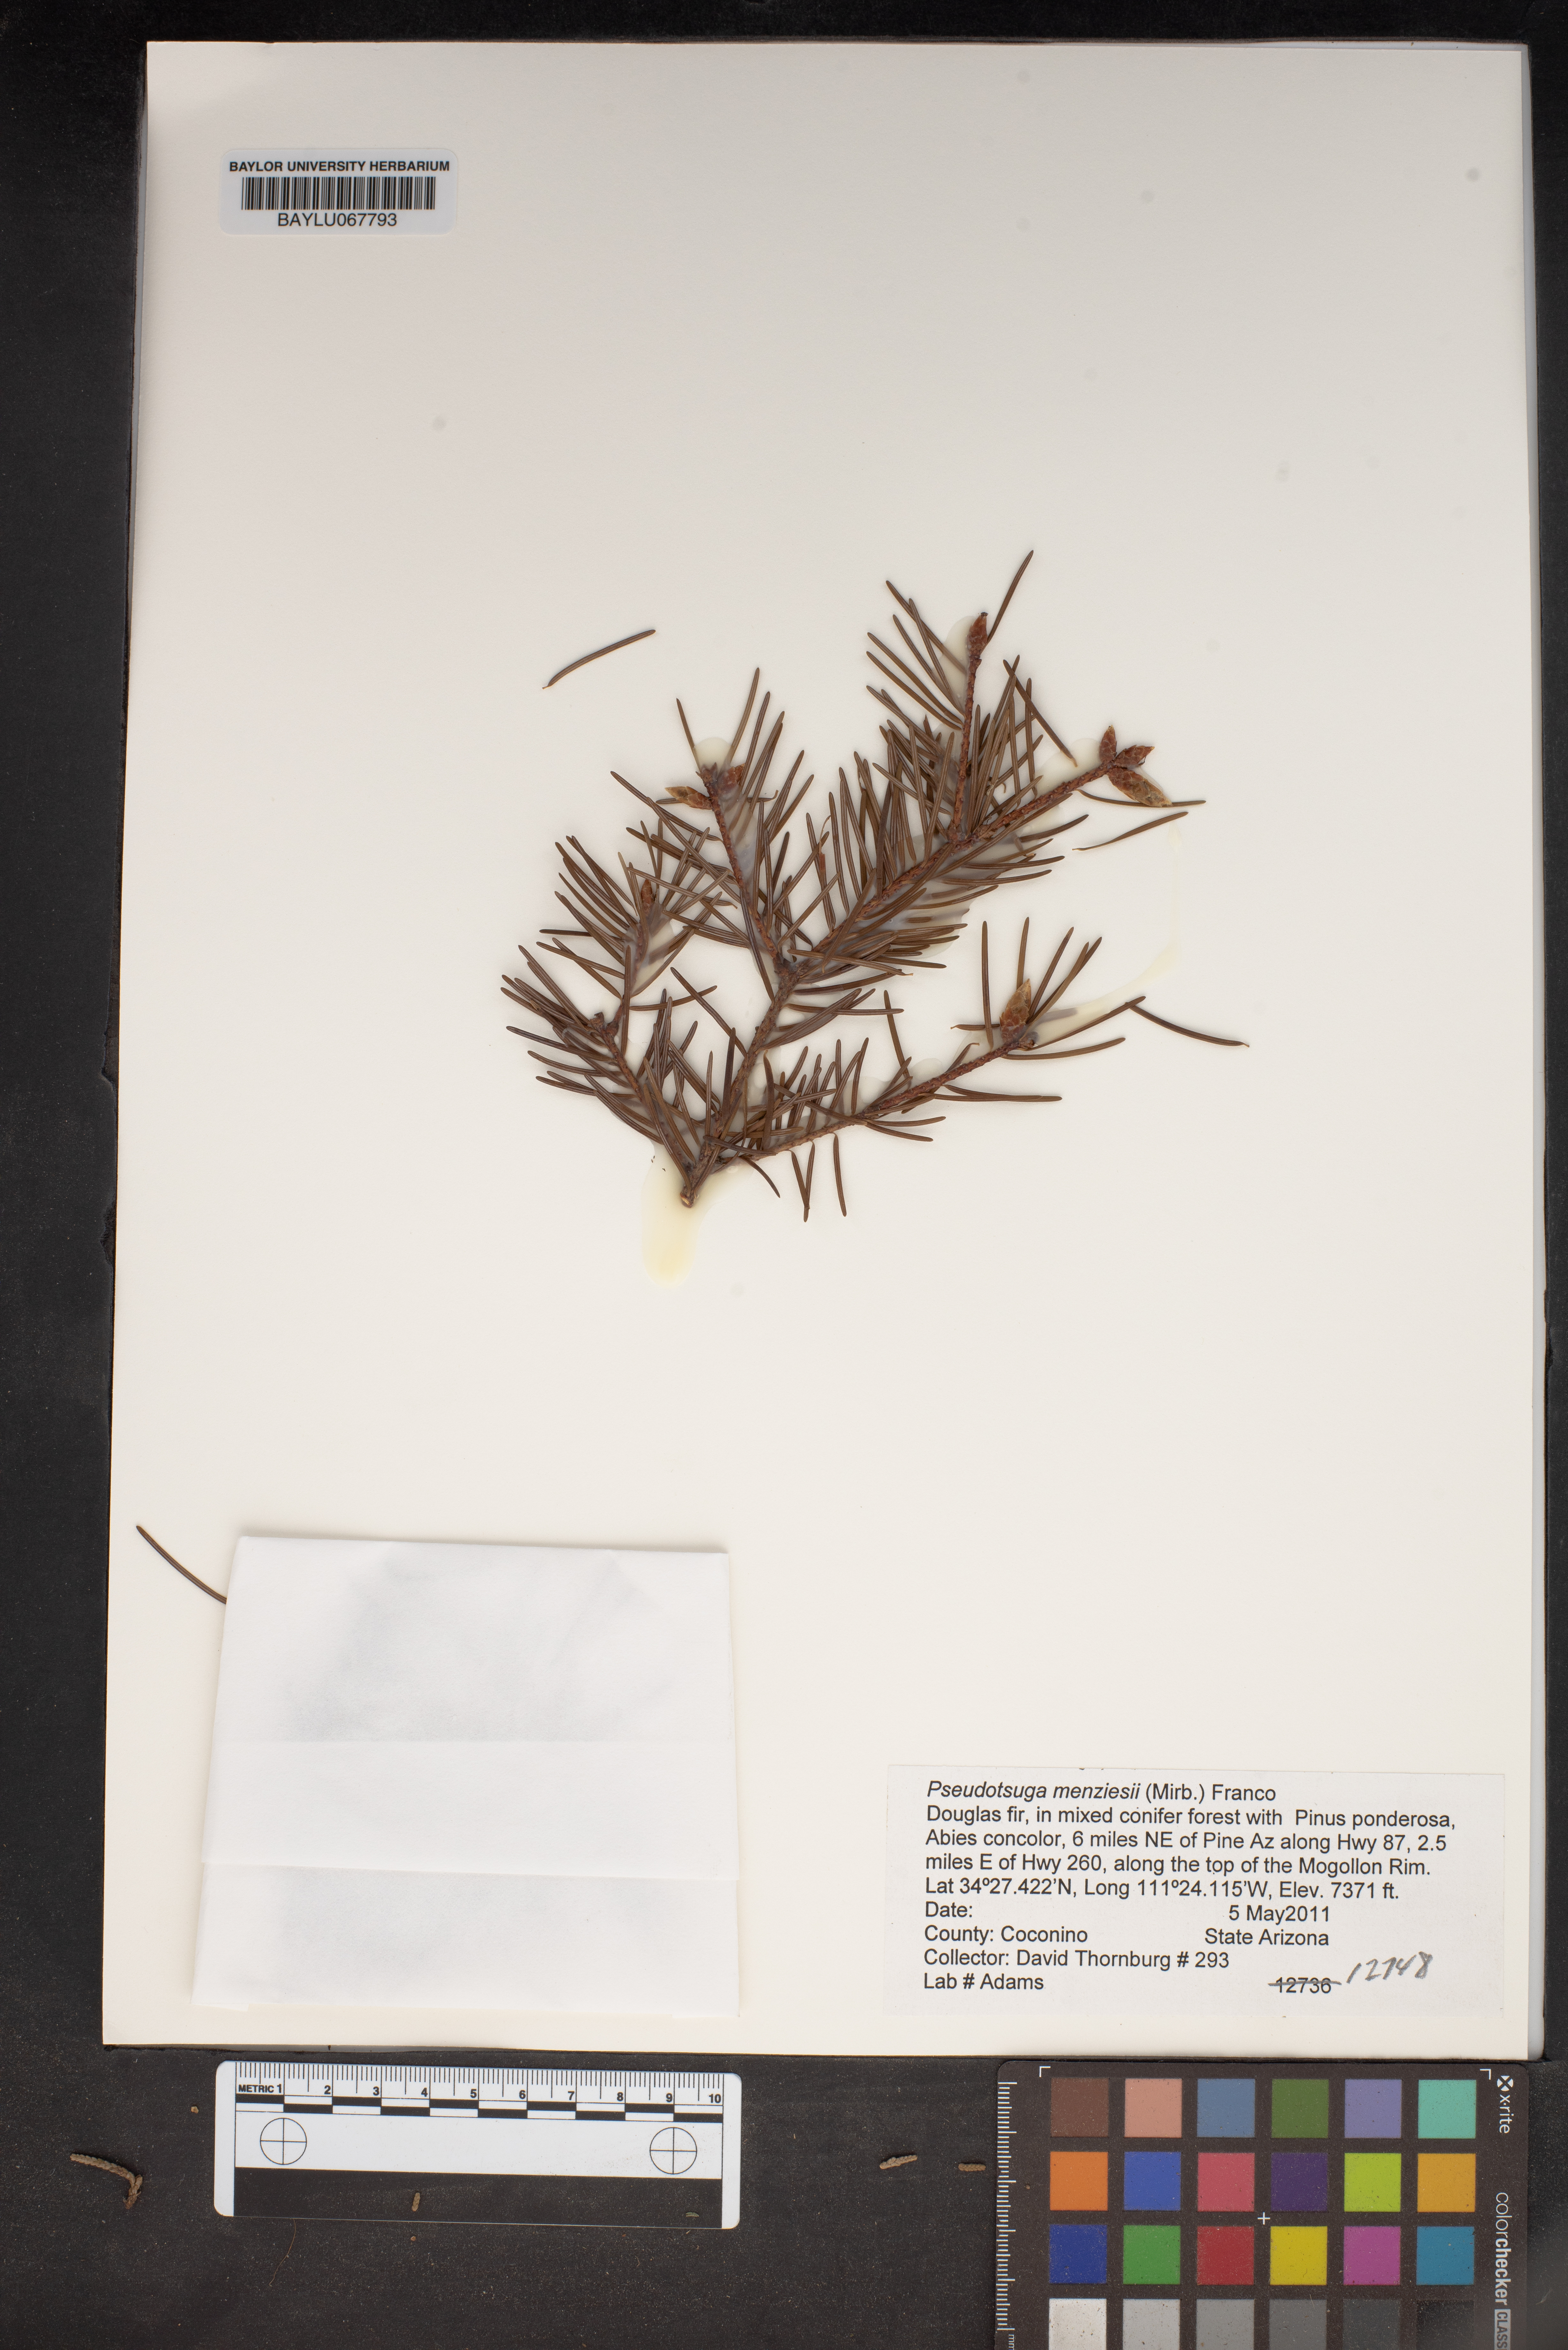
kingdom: Plantae
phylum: Tracheophyta
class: Pinopsida
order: Pinales
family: Pinaceae
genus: Pseudotsuga
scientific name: Pseudotsuga menziesii
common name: Douglas fir
